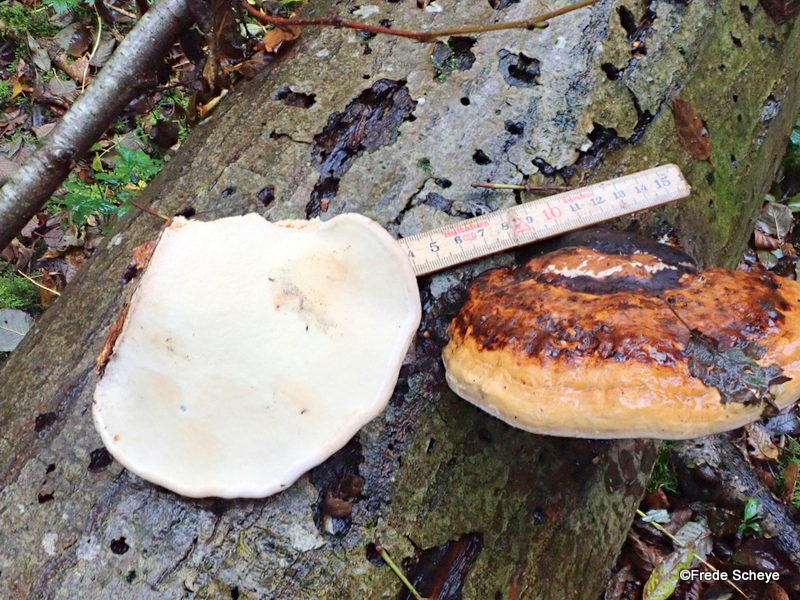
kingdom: Fungi
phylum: Basidiomycota
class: Agaricomycetes
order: Polyporales
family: Fomitopsidaceae
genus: Fomitopsis
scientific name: Fomitopsis pinicola
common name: randbæltet hovporesvamp
